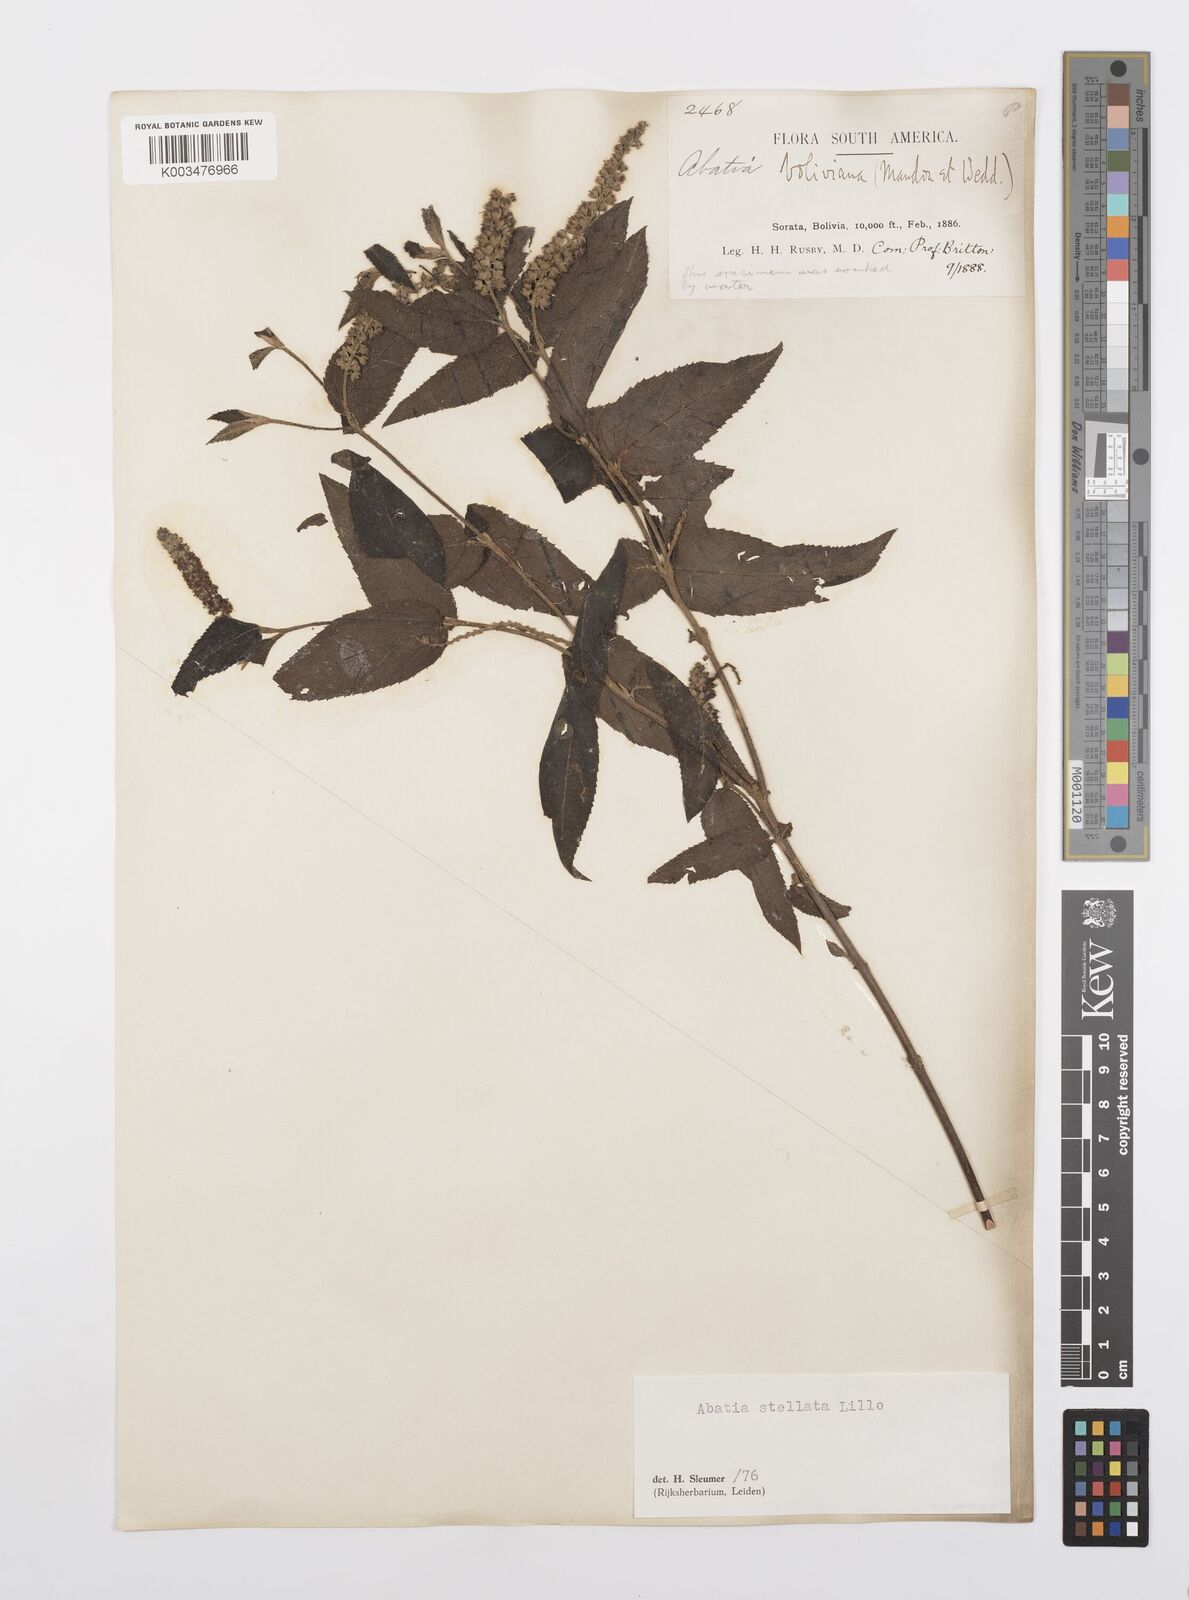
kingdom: Plantae
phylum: Tracheophyta
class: Magnoliopsida
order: Malpighiales
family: Salicaceae
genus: Abatia
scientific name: Abatia stellata
